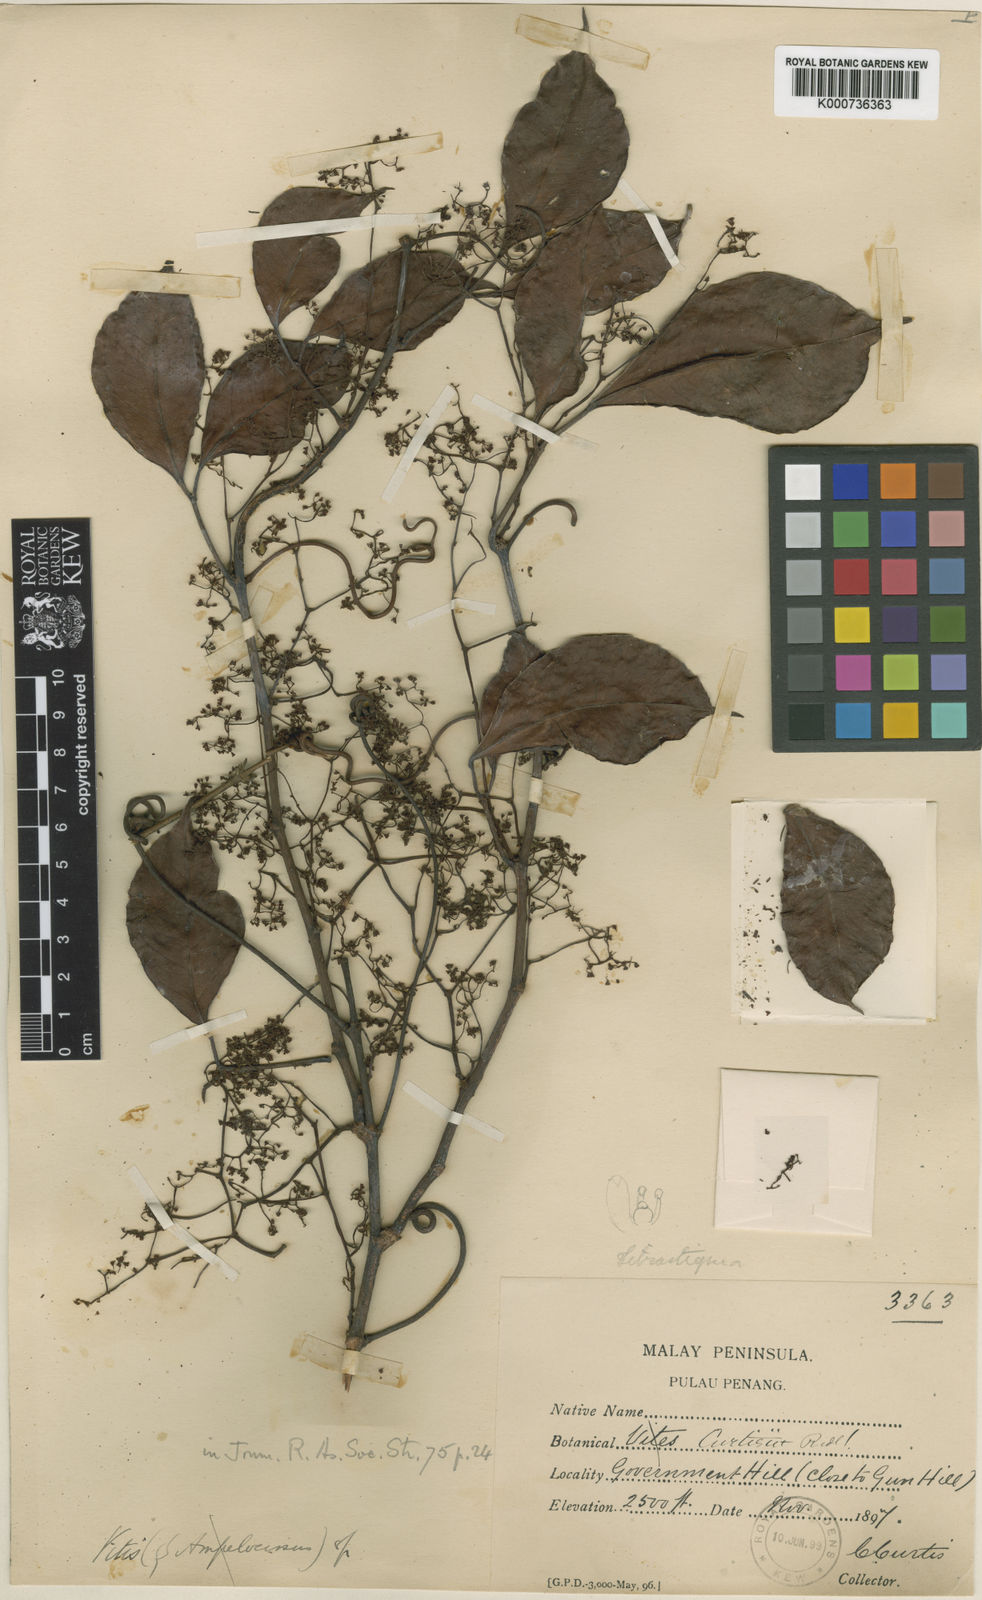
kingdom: Plantae
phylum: Tracheophyta
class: Magnoliopsida
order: Vitales
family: Vitaceae
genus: Tetrastigma
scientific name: Tetrastigma curtisii
